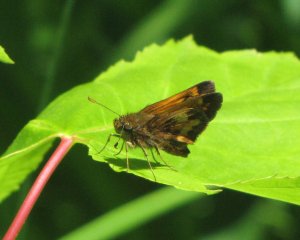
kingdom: Animalia
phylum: Arthropoda
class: Insecta
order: Lepidoptera
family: Hesperiidae
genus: Lon
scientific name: Lon hobomok
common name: Hobomok Skipper
